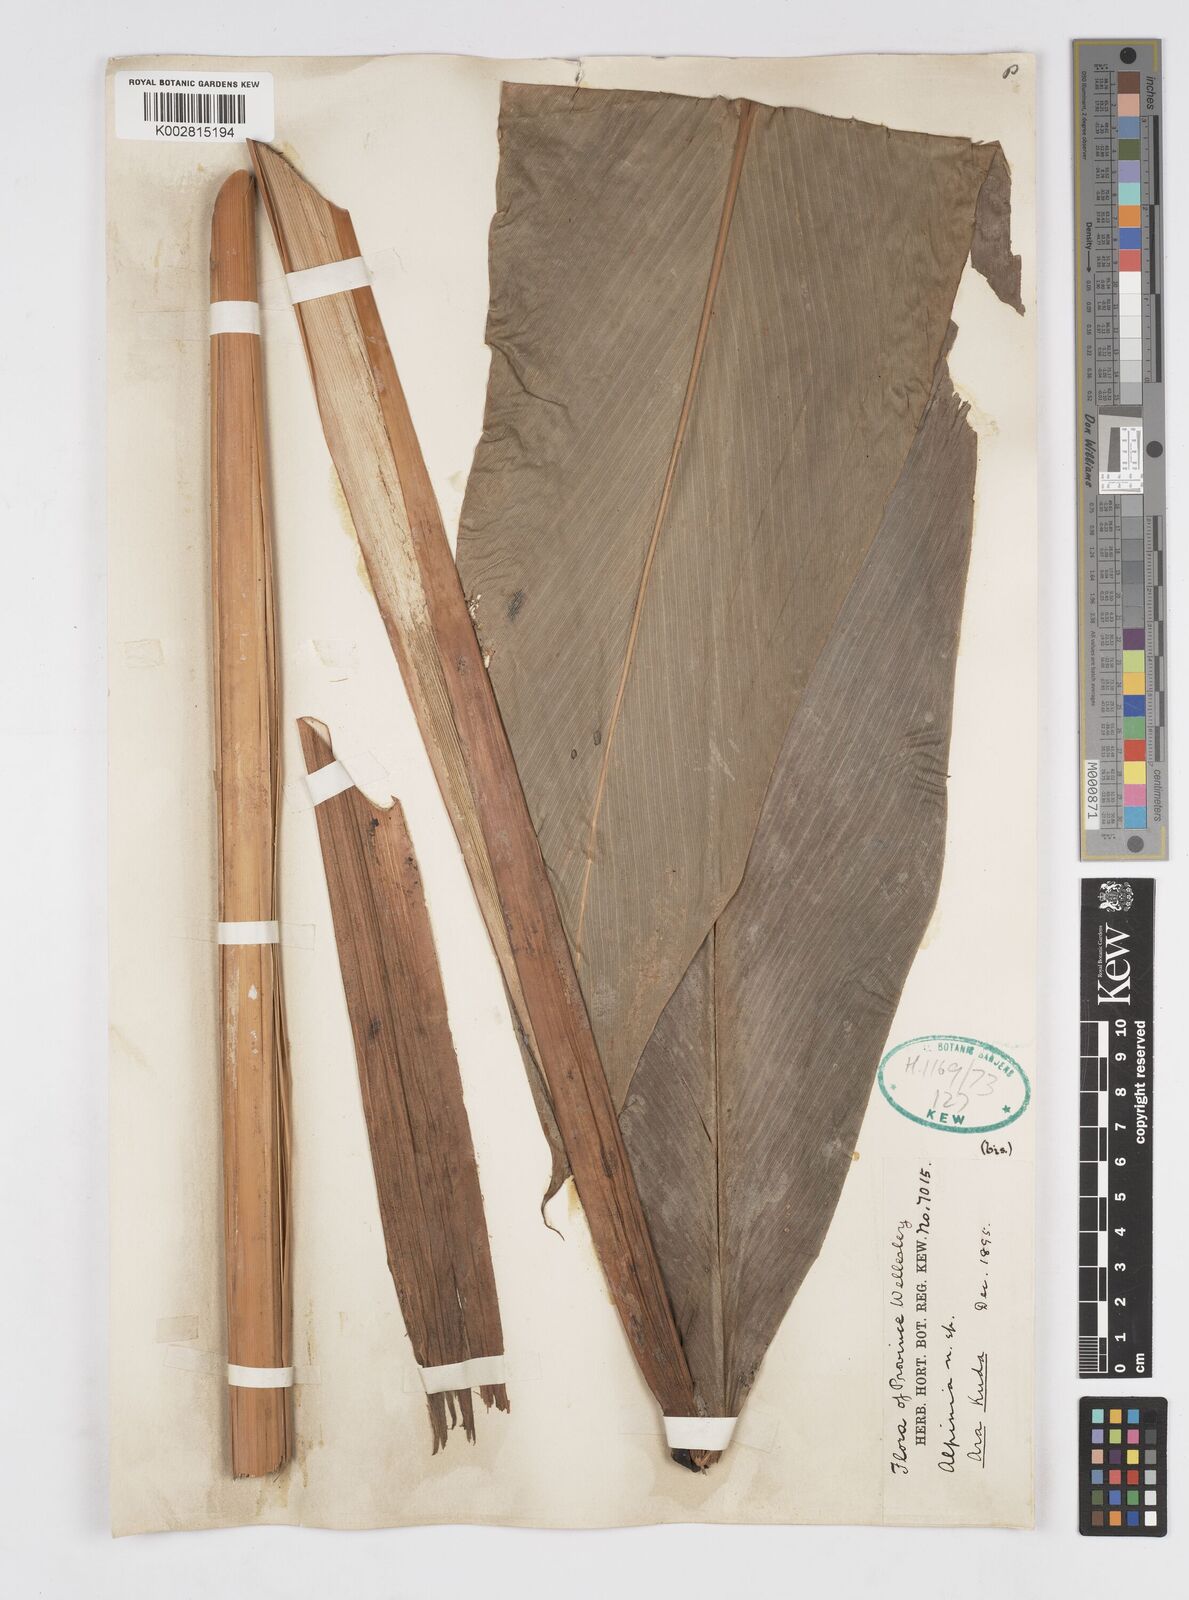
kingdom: Plantae
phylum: Tracheophyta
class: Liliopsida
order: Zingiberales
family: Zingiberaceae
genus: Alpinia
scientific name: Alpinia capitellata
